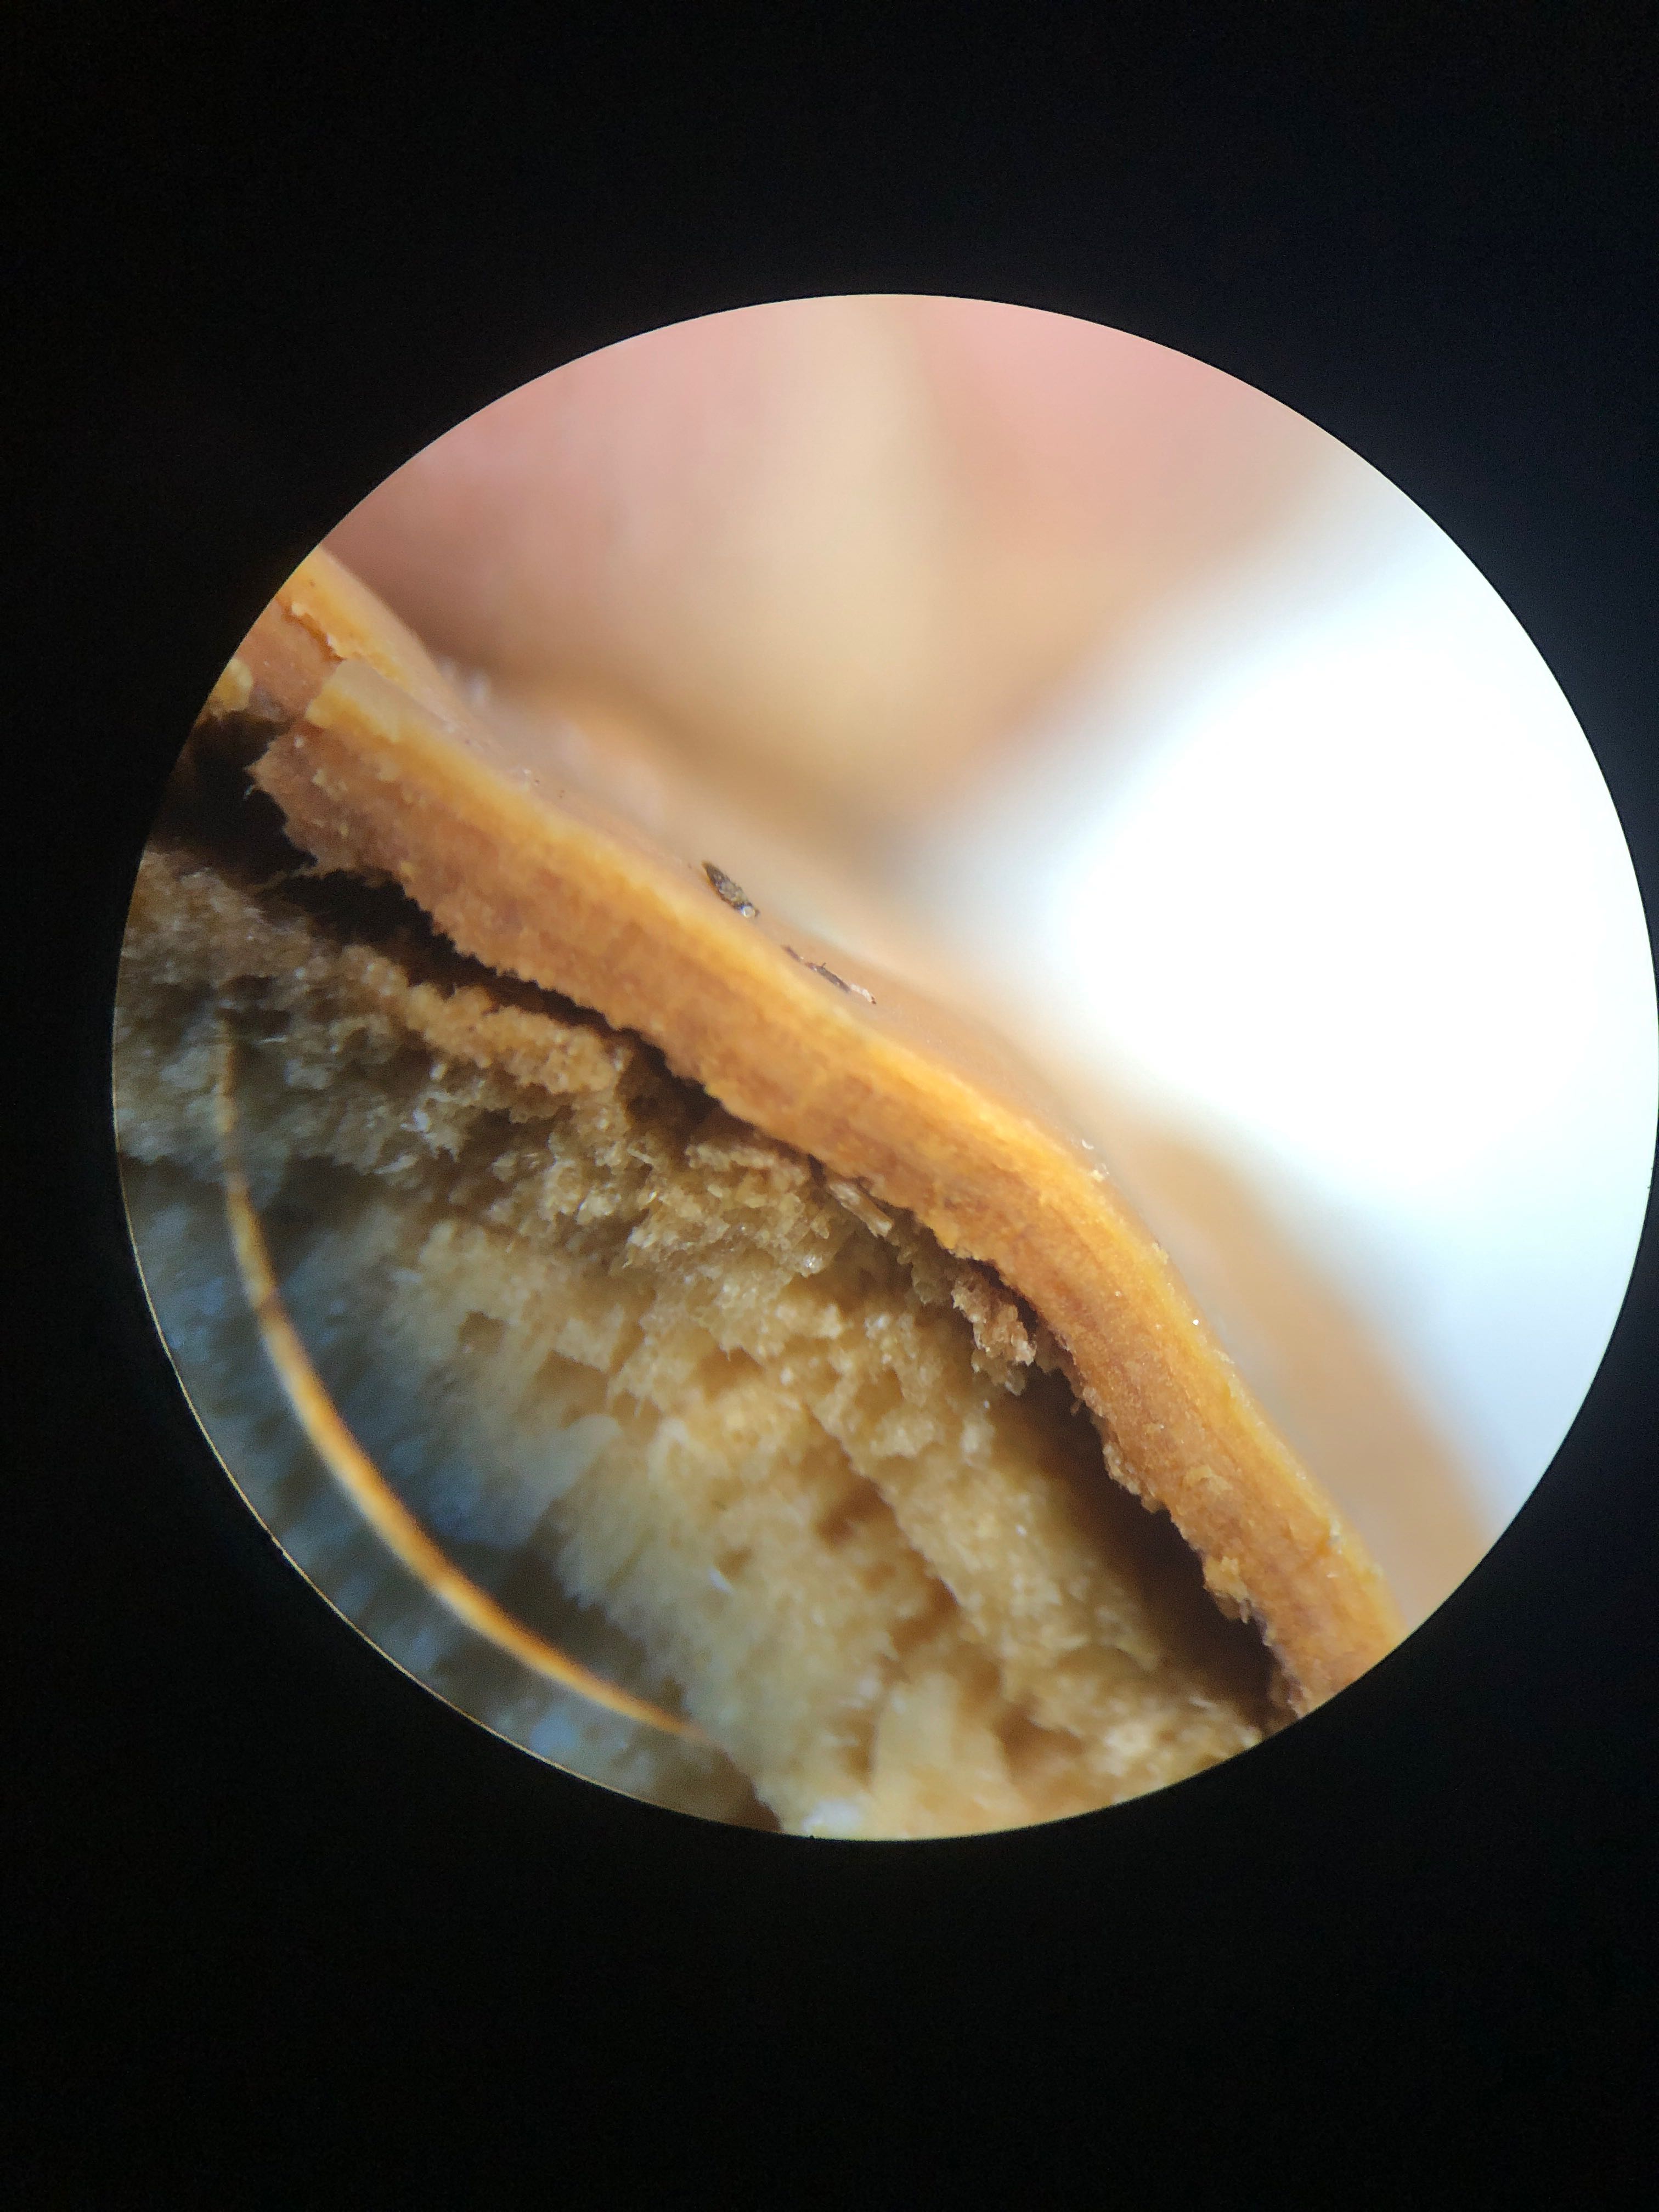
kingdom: Fungi
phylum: Basidiomycota
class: Agaricomycetes
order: Russulales
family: Peniophoraceae
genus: Scytinostroma
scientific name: Scytinostroma hemidichophyticum
